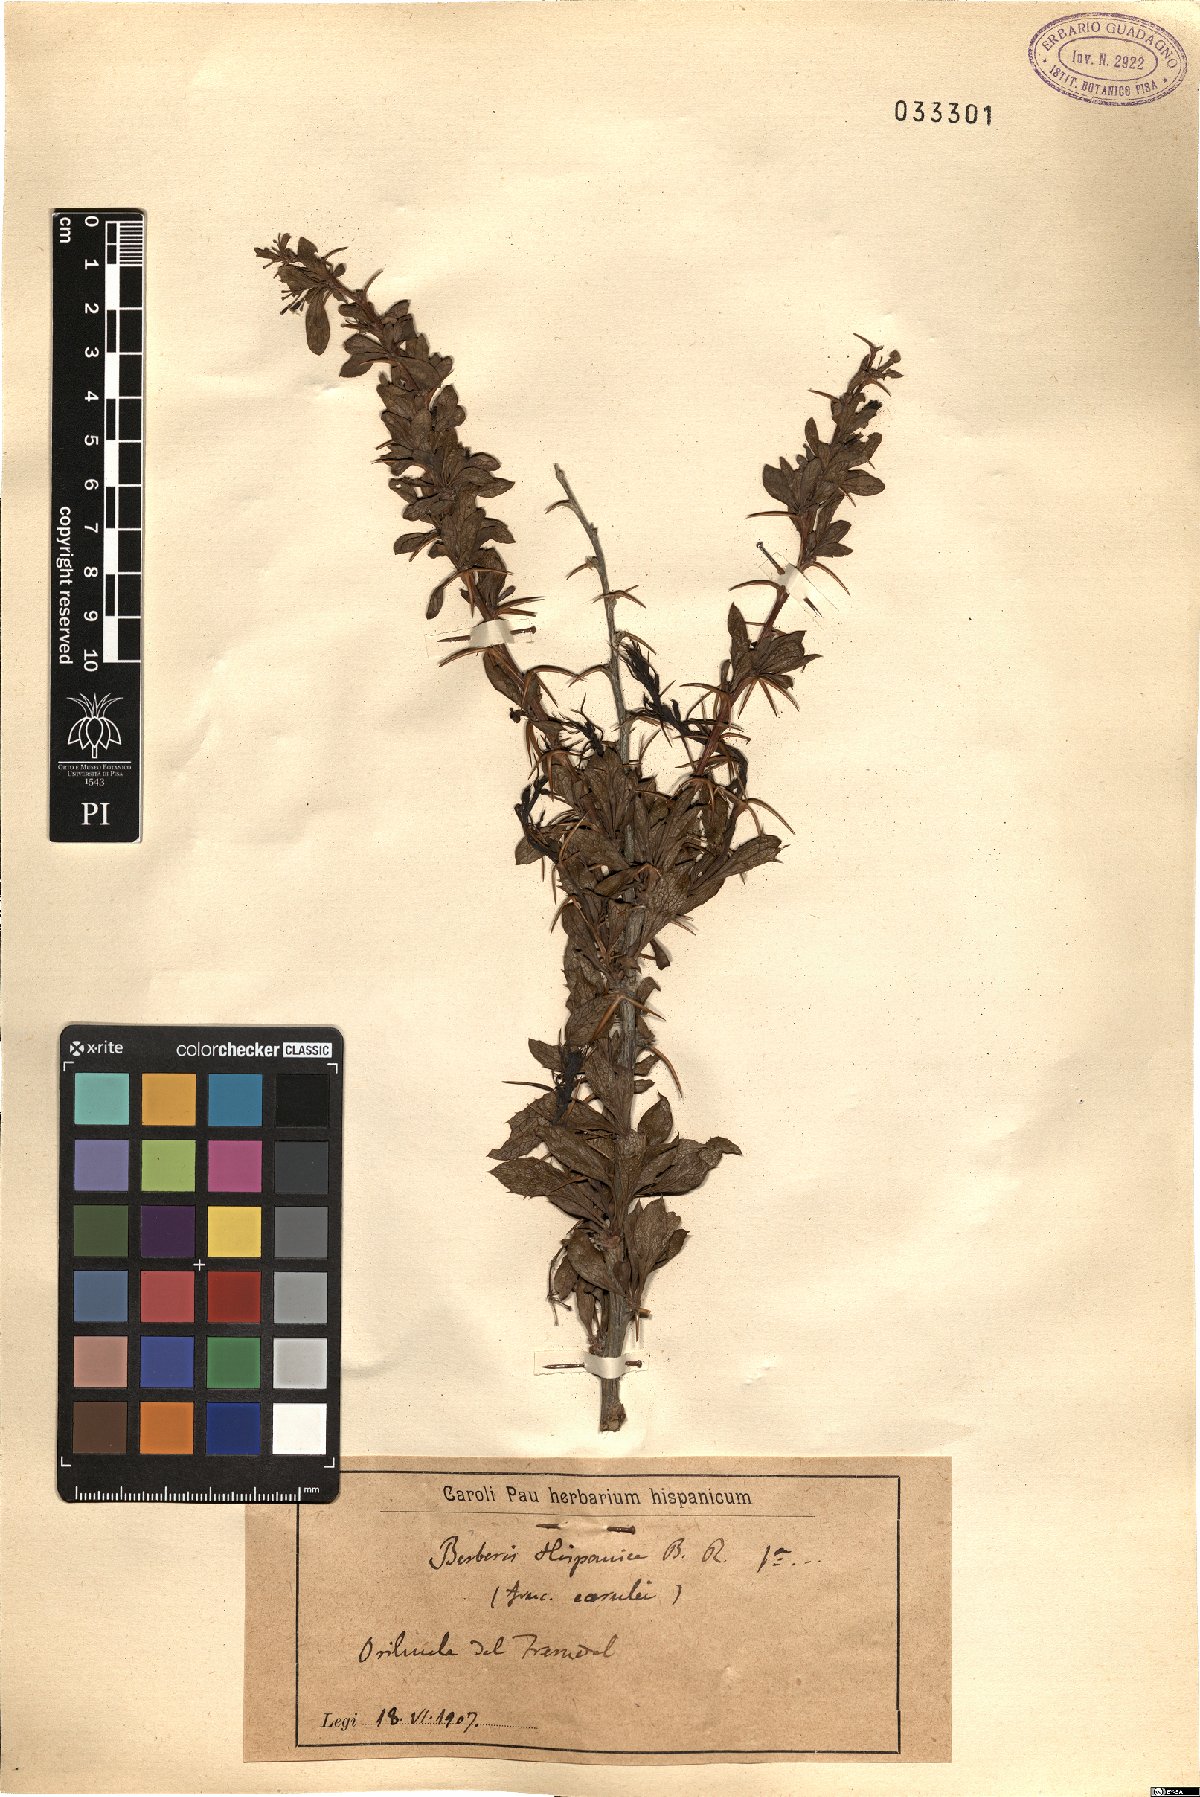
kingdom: Plantae
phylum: Tracheophyta
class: Magnoliopsida
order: Ranunculales
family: Berberidaceae
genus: Berberis
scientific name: Berberis hispanica
